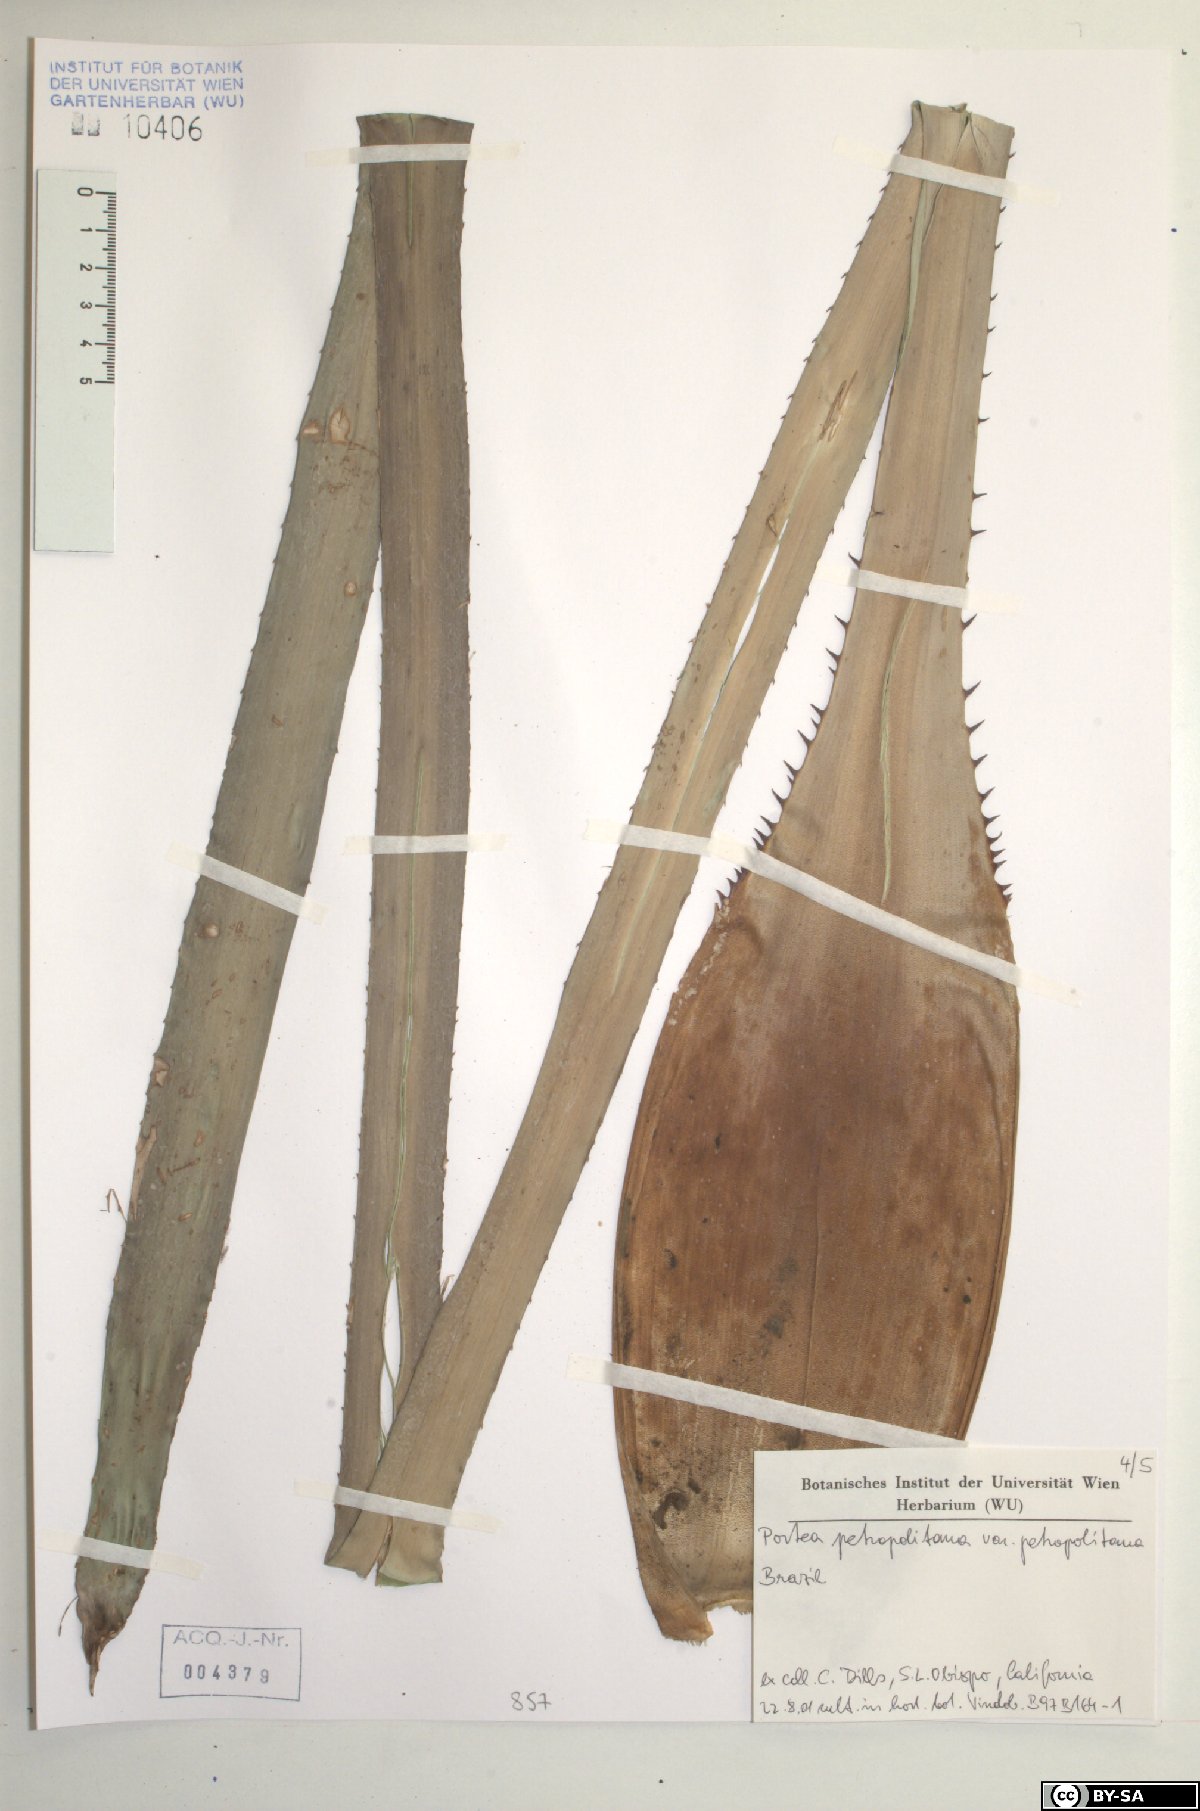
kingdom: Plantae
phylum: Tracheophyta
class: Liliopsida
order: Poales
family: Bromeliaceae
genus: Portea
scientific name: Portea petropolitana
